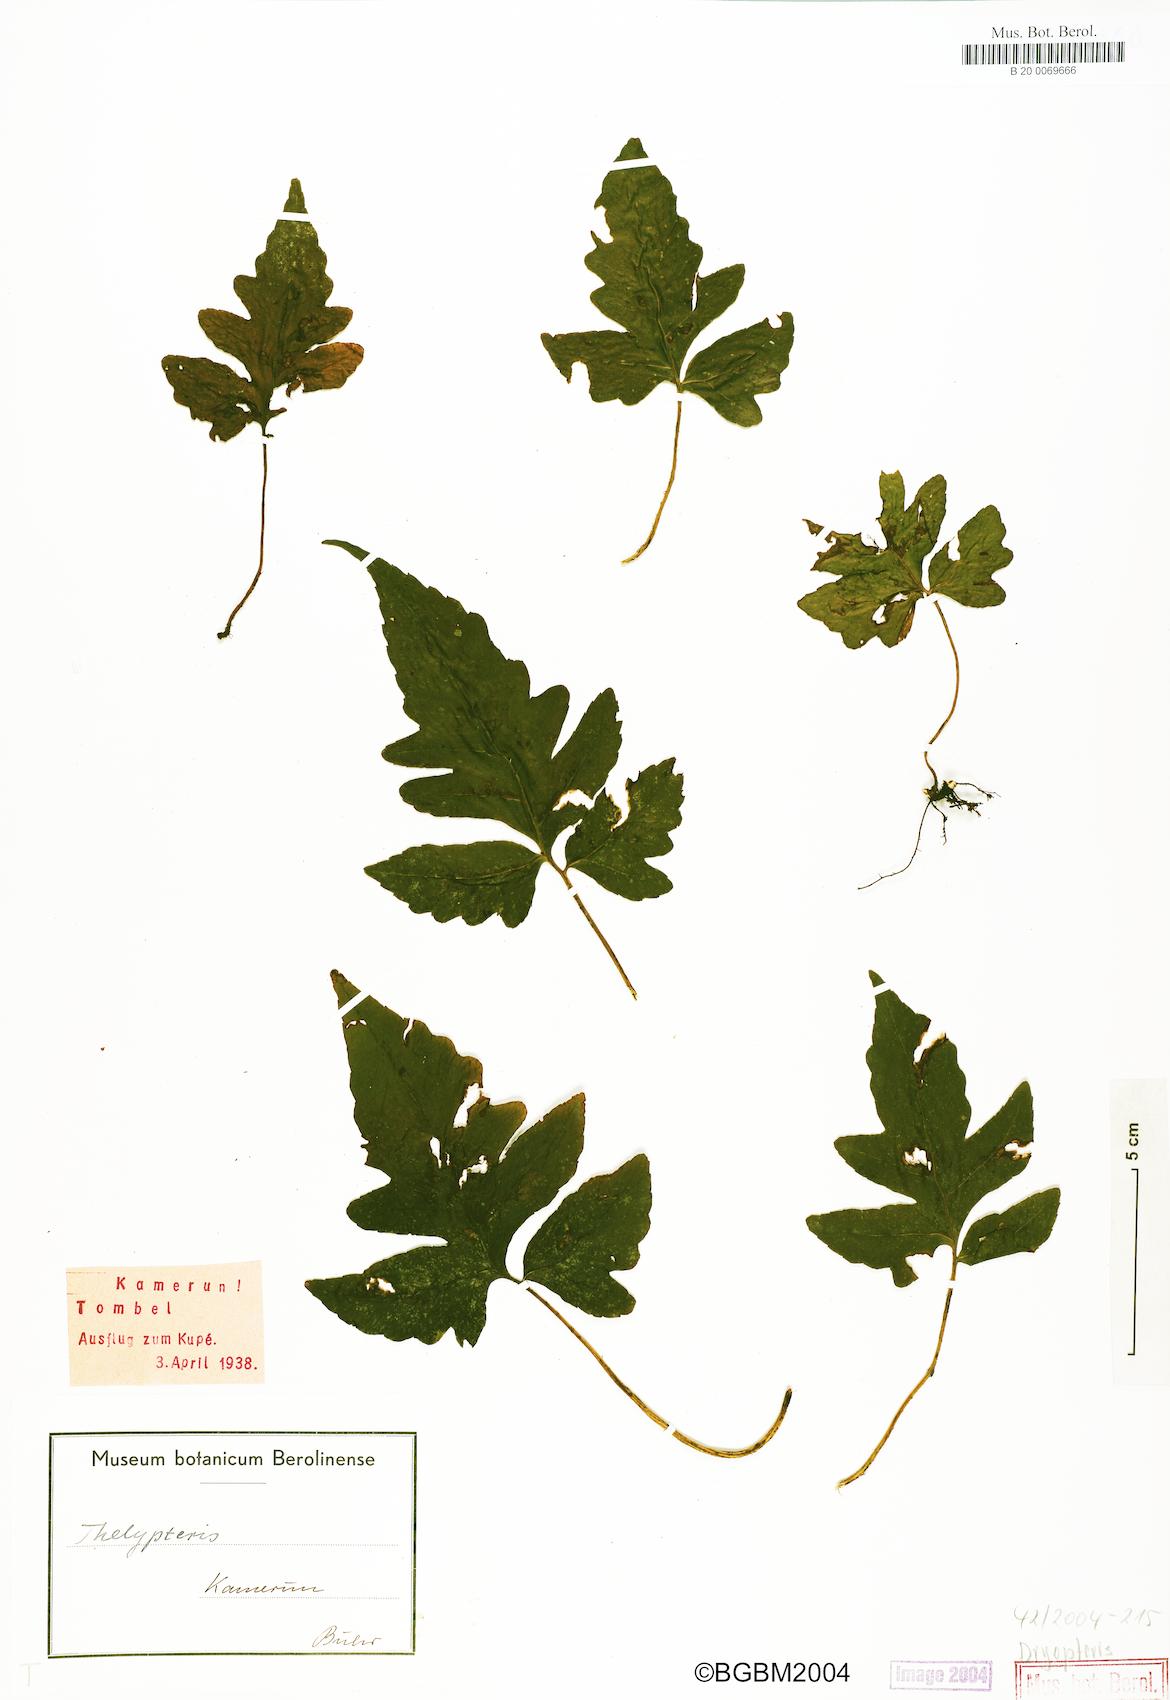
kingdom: Plantae
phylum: Tracheophyta
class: Polypodiopsida
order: Polypodiales
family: Dryopteridaceae
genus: Dryopteris
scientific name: Dryopteris
